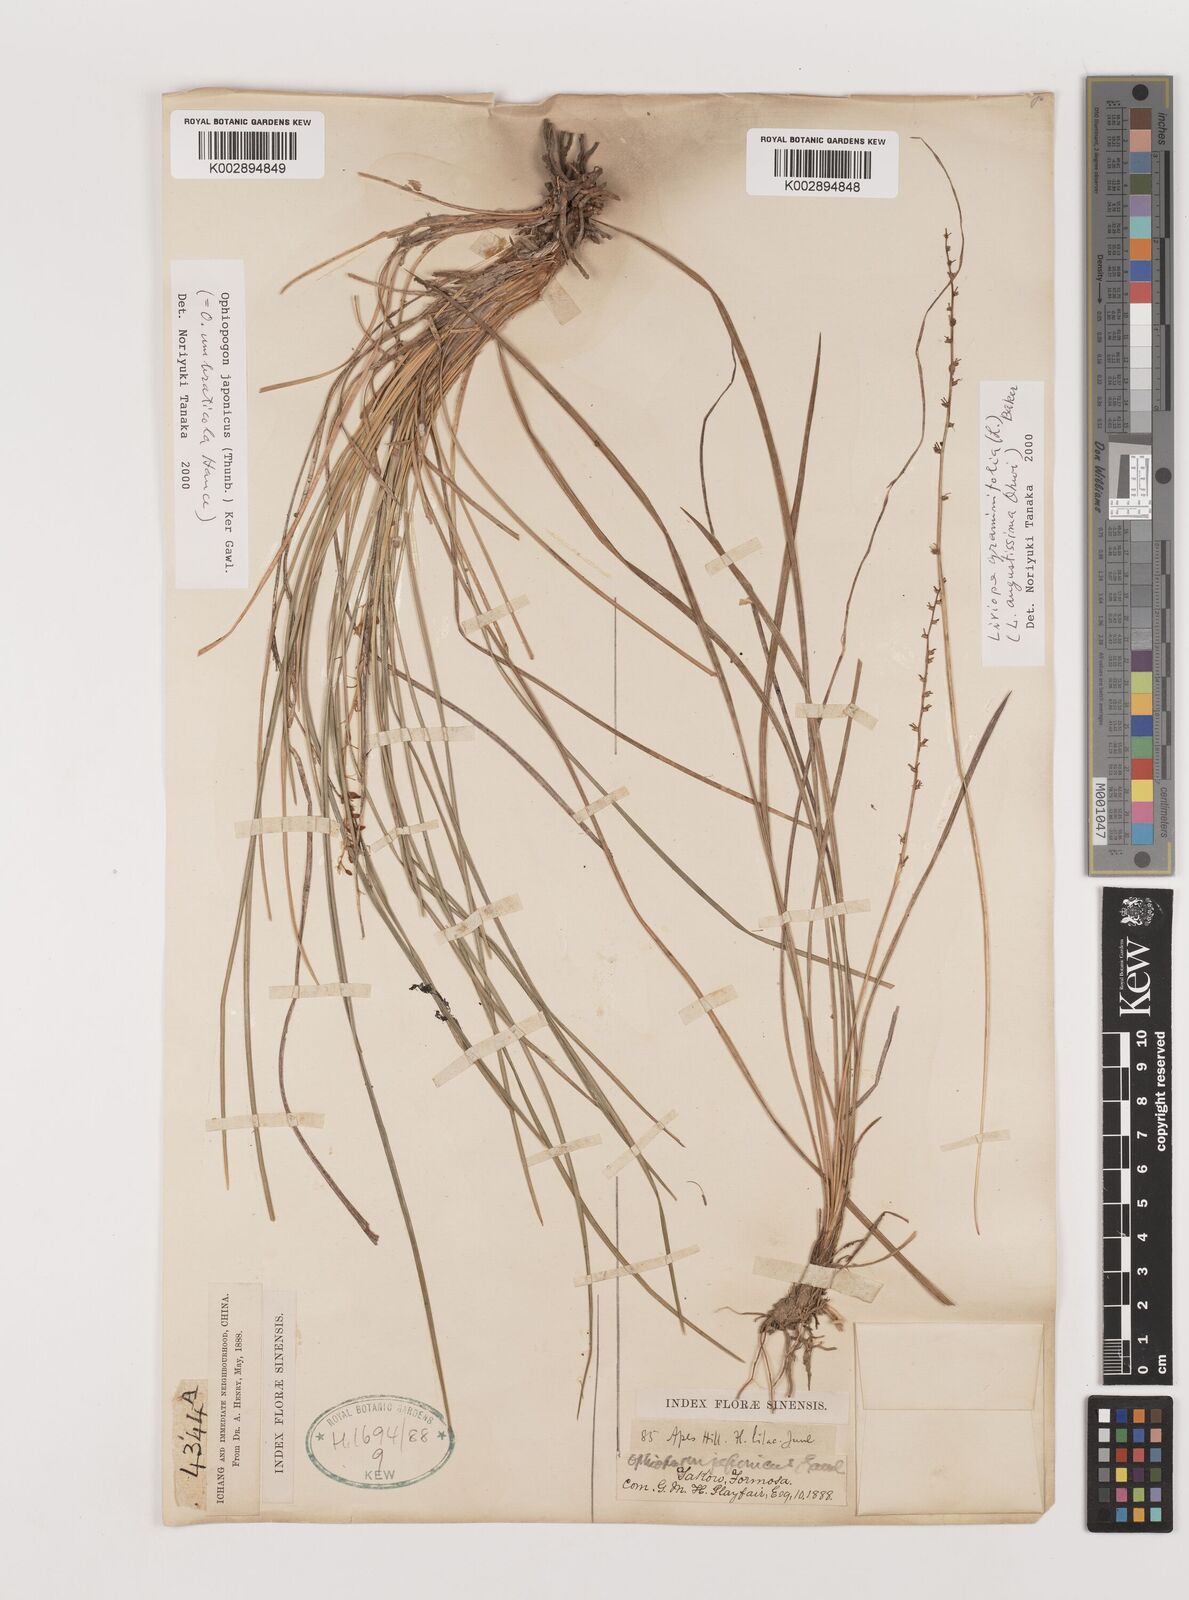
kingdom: Plantae
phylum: Tracheophyta
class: Liliopsida
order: Asparagales
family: Asparagaceae
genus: Ophiopogon
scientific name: Ophiopogon japonicus
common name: Dwarf lilyturf
